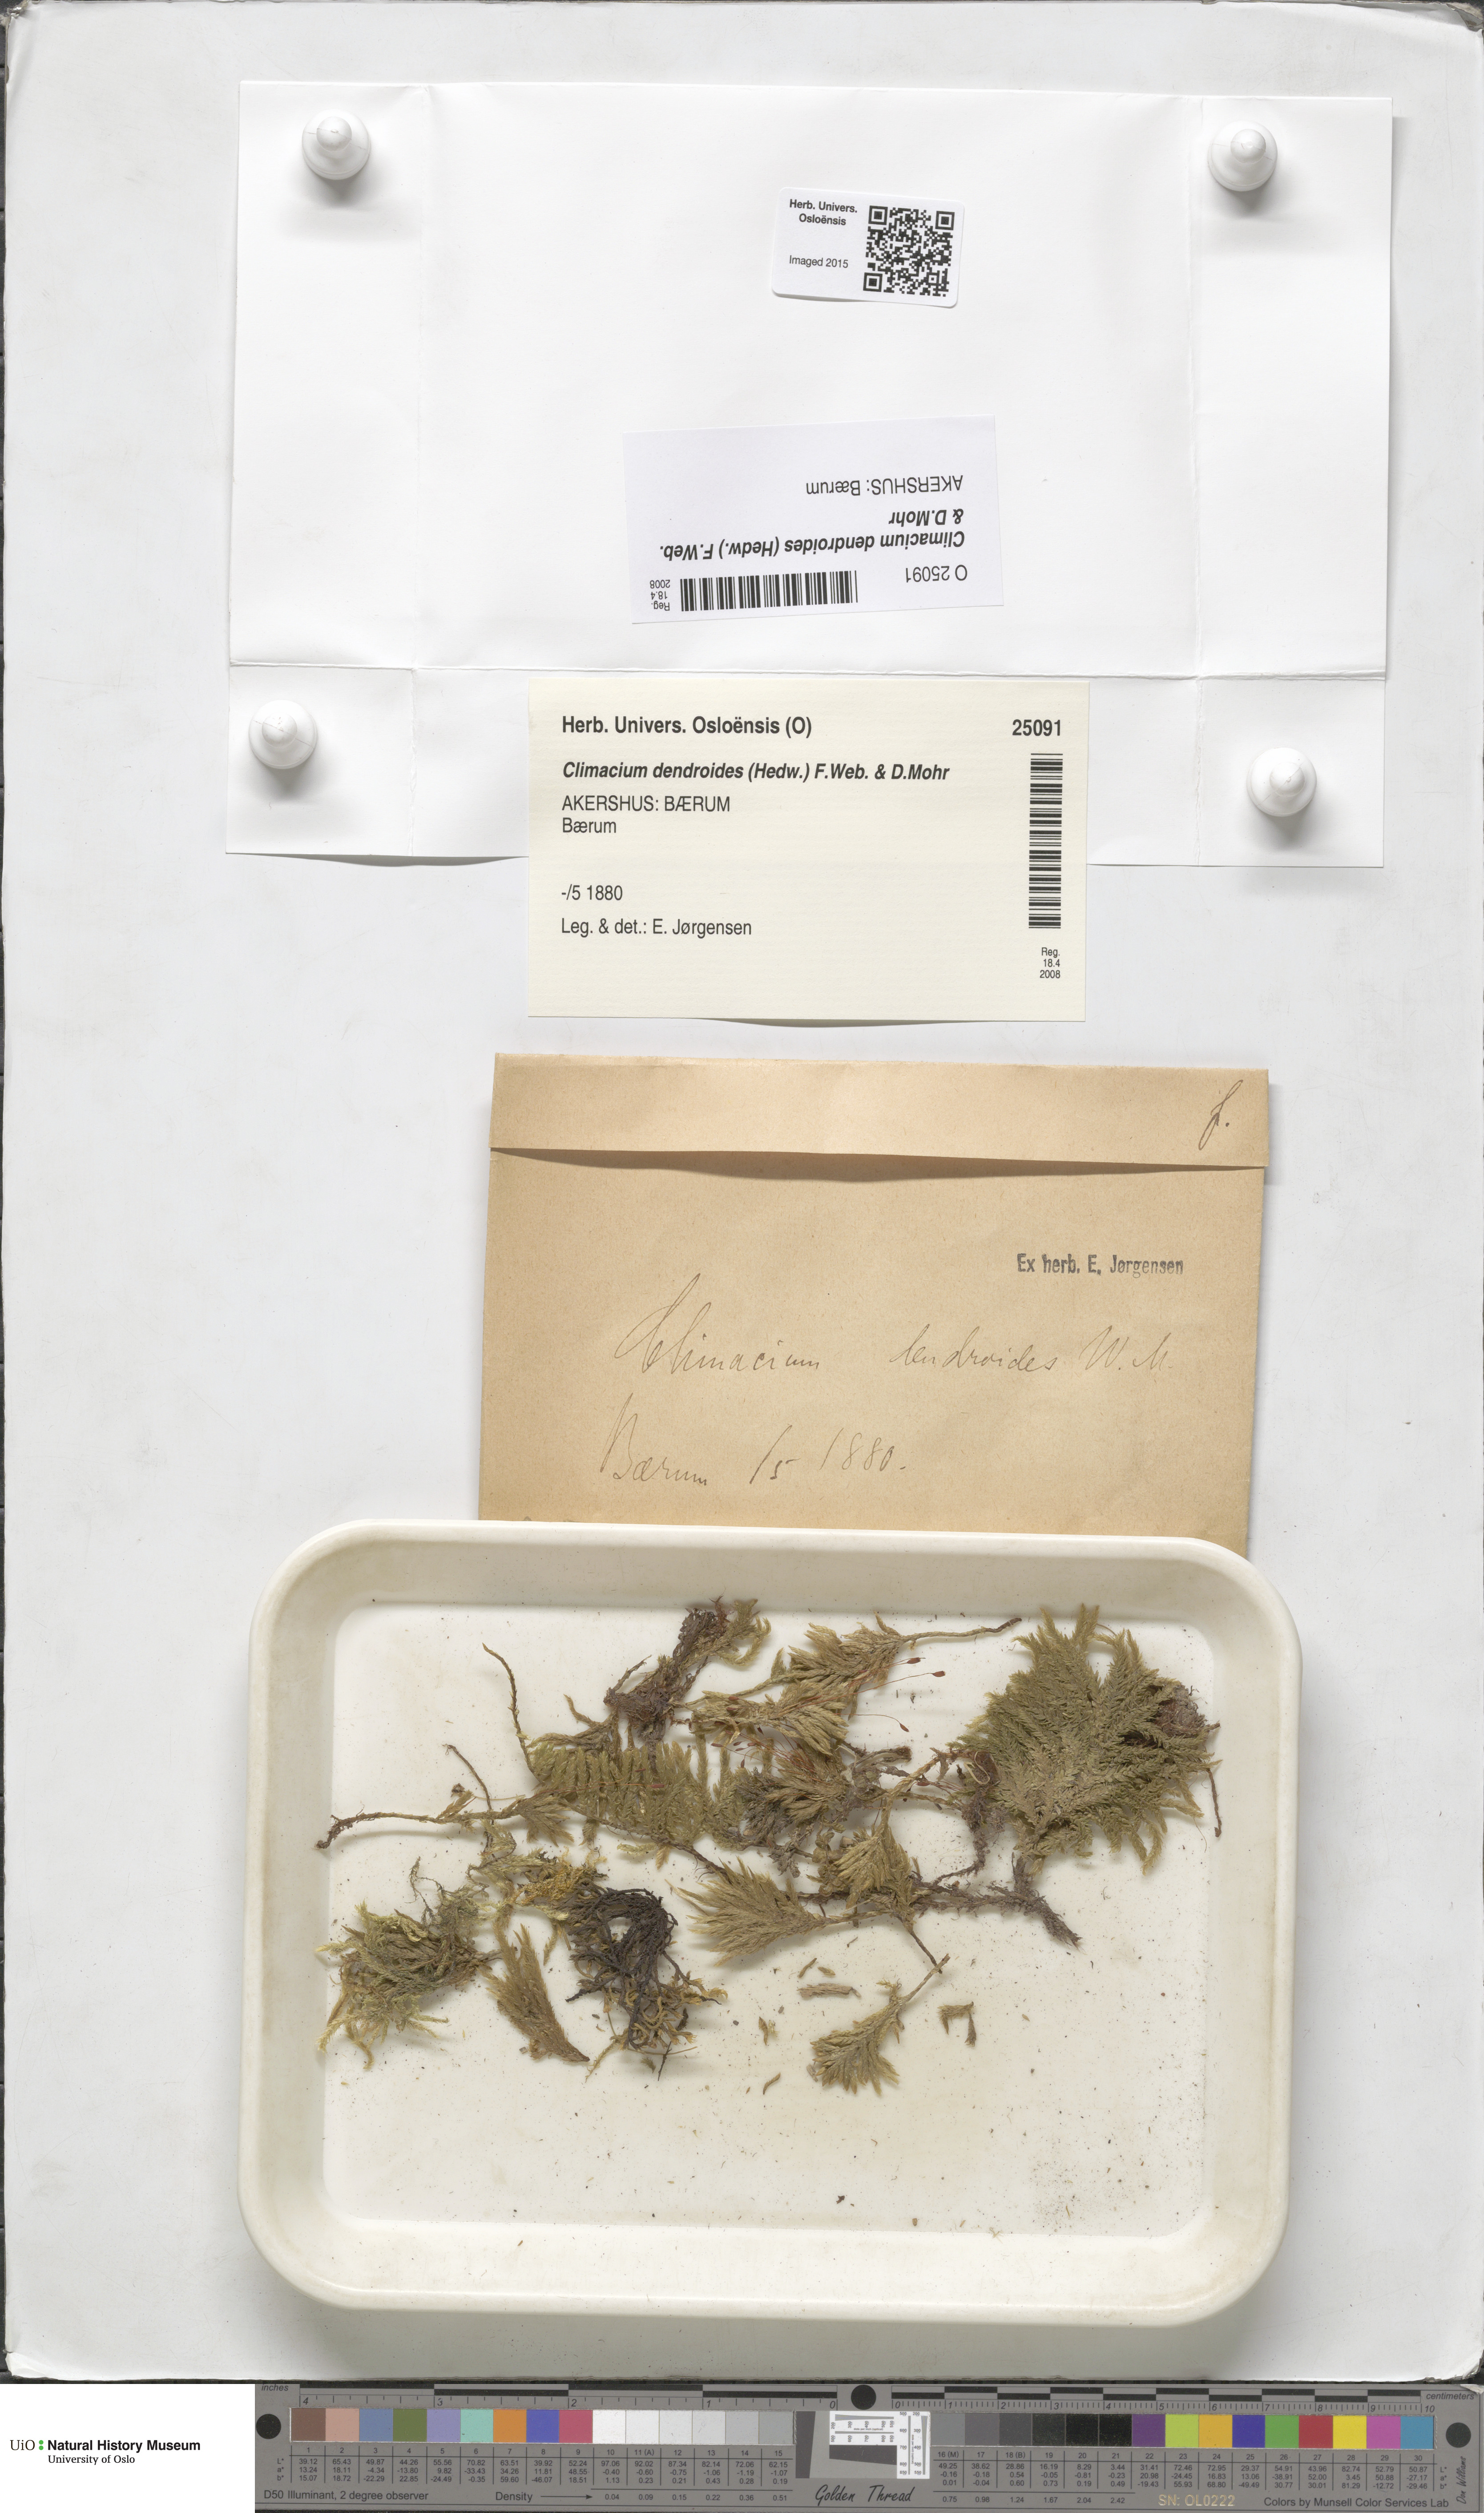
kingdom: Plantae
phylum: Bryophyta
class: Bryopsida
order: Hypnales
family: Climaciaceae
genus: Climacium
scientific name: Climacium dendroides
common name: Northern tree moss
